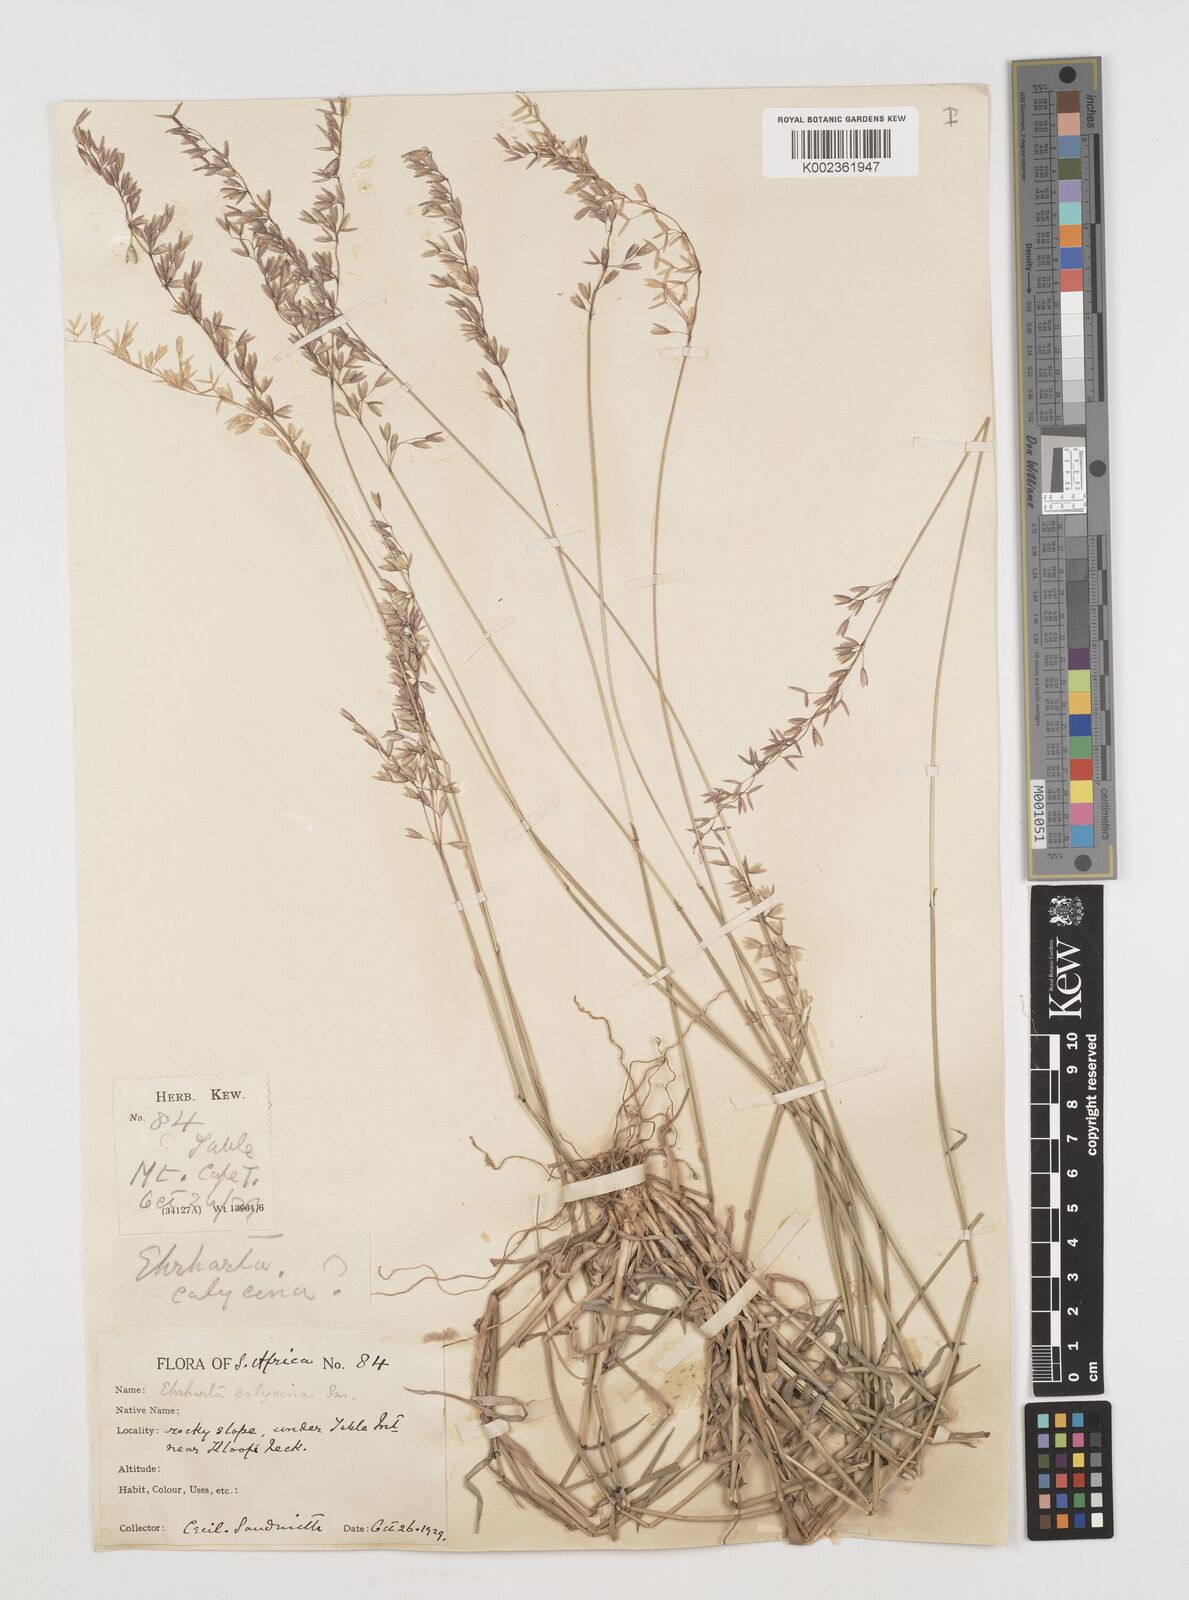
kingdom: Plantae
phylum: Tracheophyta
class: Liliopsida
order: Poales
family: Poaceae
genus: Ehrharta
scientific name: Ehrharta calycina
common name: Perennial veldtgrass
